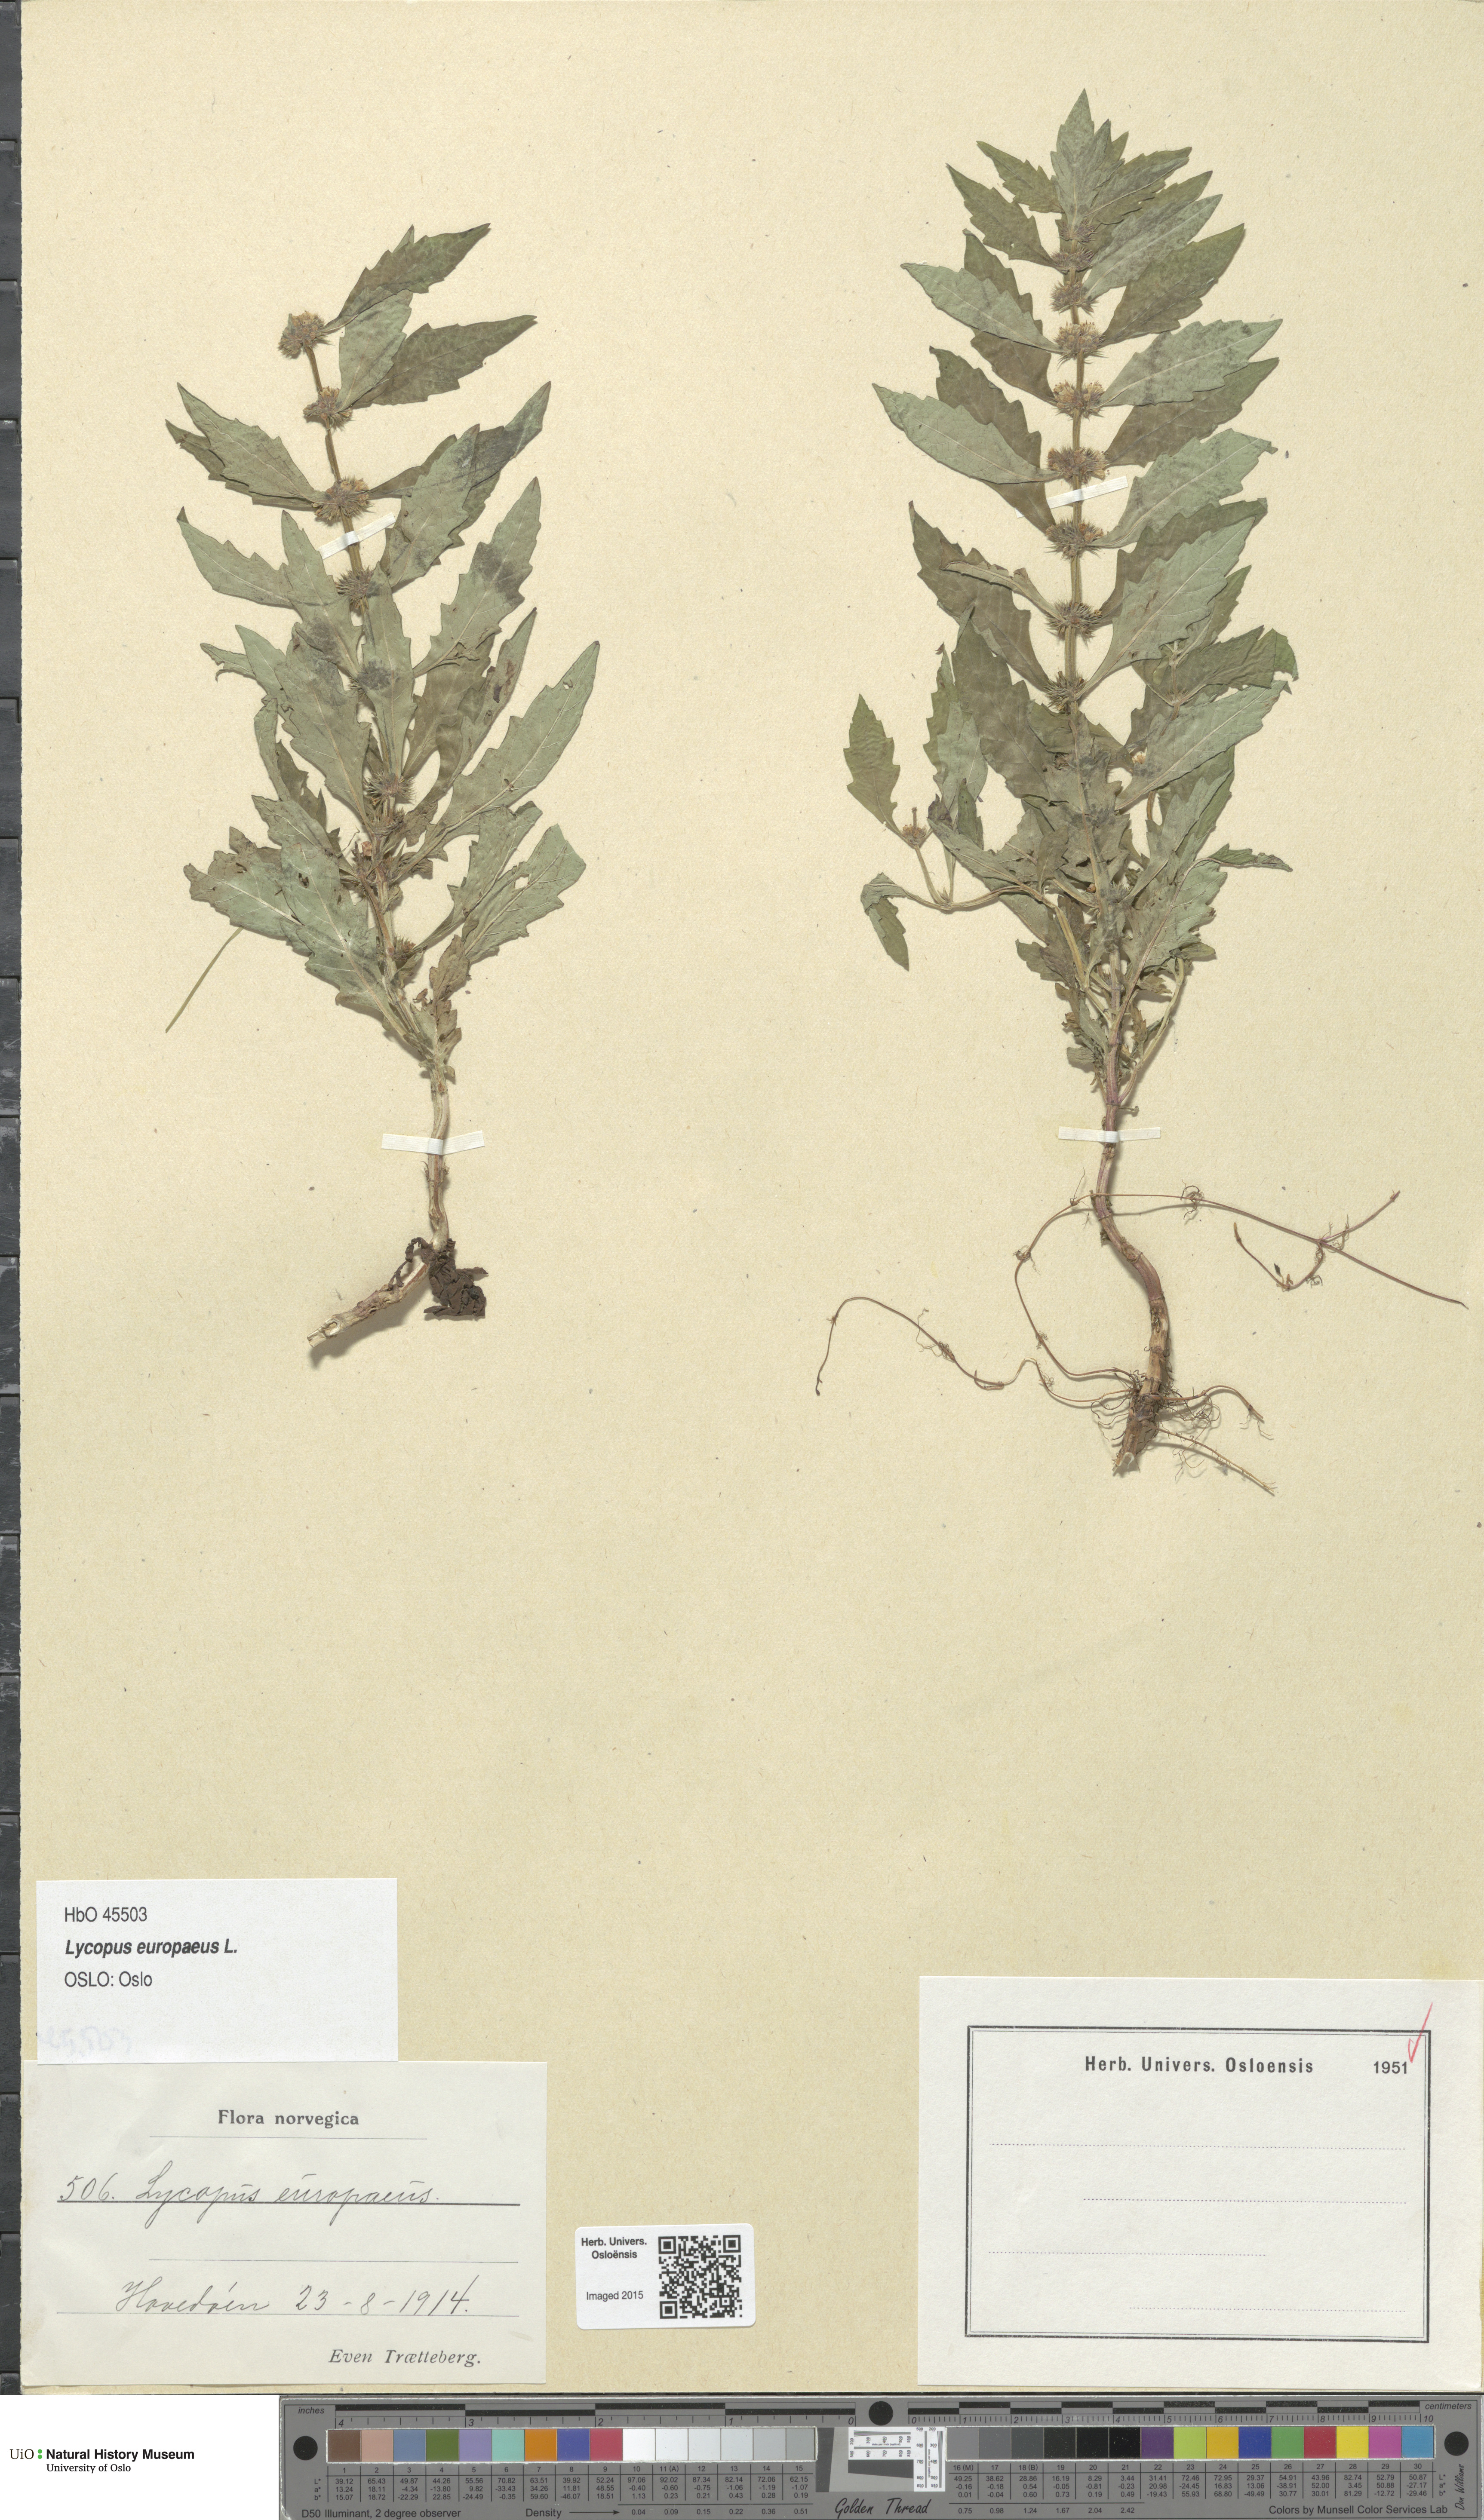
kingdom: Plantae
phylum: Tracheophyta
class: Magnoliopsida
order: Lamiales
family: Lamiaceae
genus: Lycopus
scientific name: Lycopus europaeus
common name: European bugleweed
